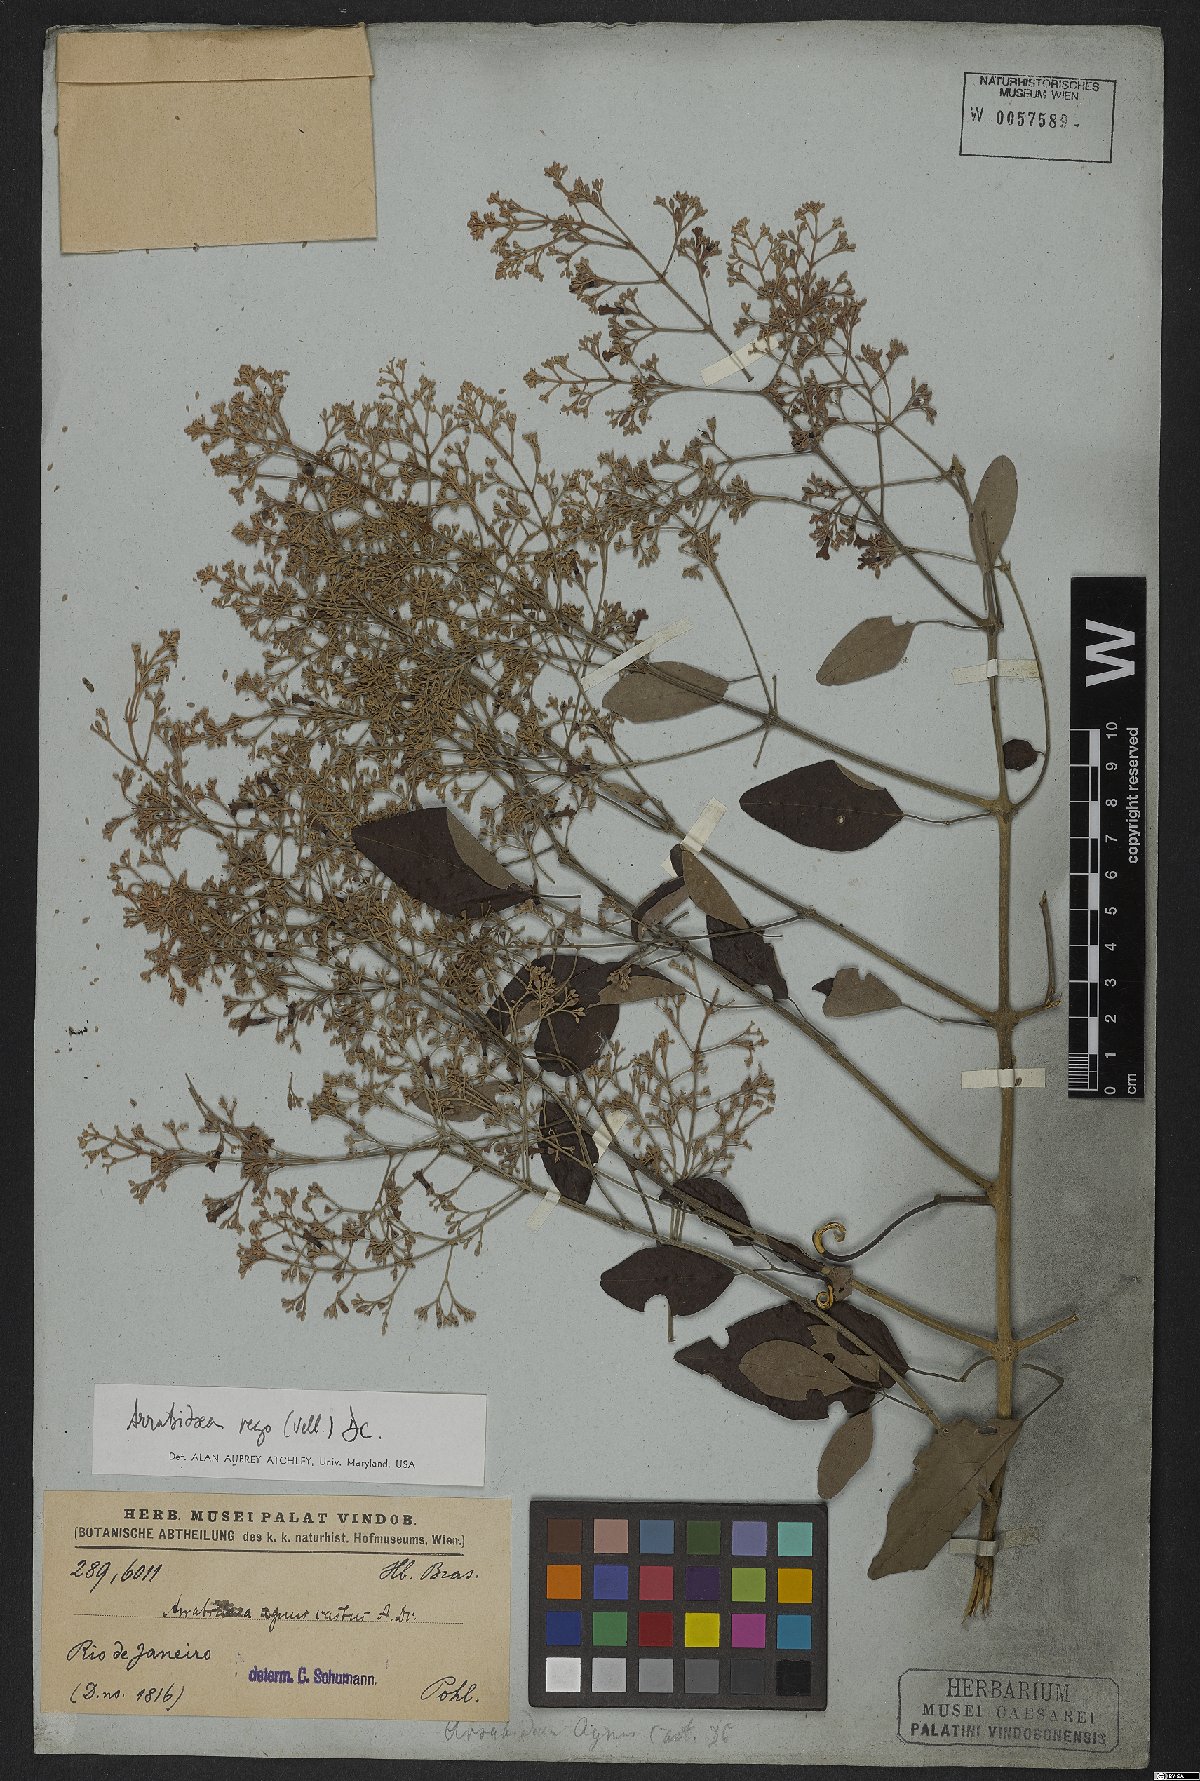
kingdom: Plantae
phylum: Tracheophyta
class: Magnoliopsida
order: Lamiales
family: Bignoniaceae
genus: Fridericia
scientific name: Fridericia rego
